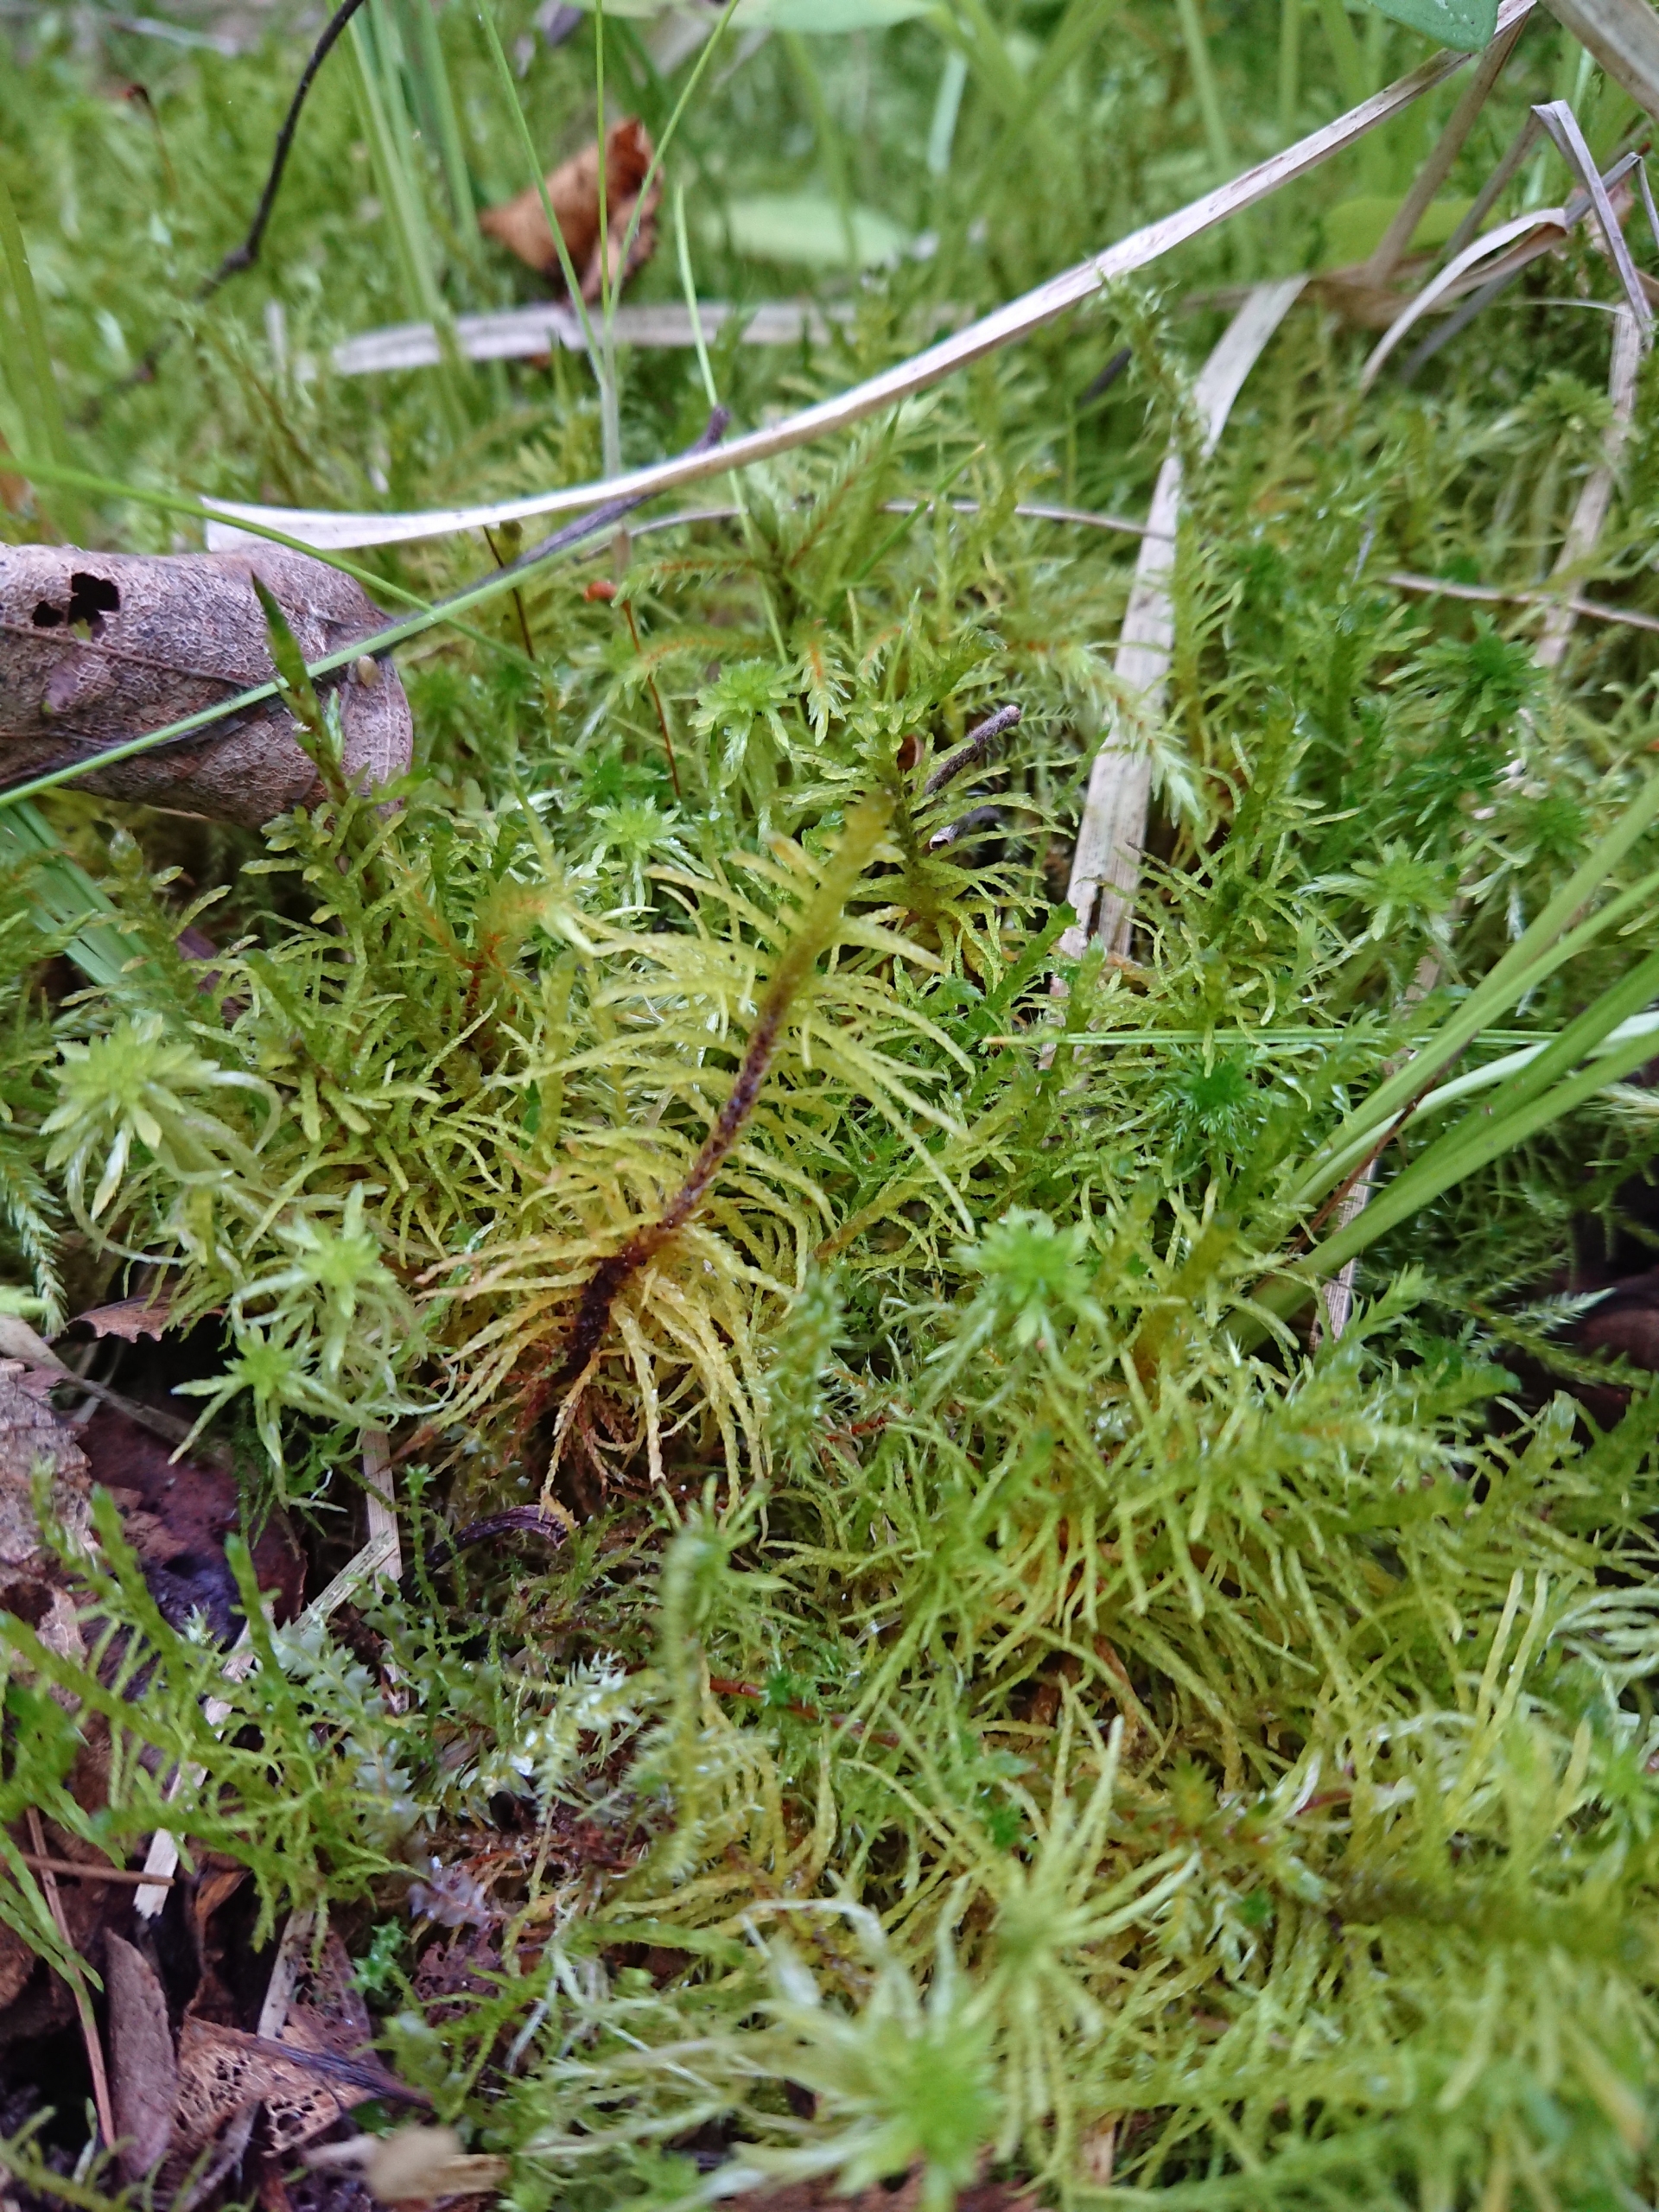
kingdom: Plantae
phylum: Bryophyta
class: Bryopsida
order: Hypnales
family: Helodiaceae
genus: Helodium
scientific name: Helodium blandowii
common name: Kær-gyldenmos
